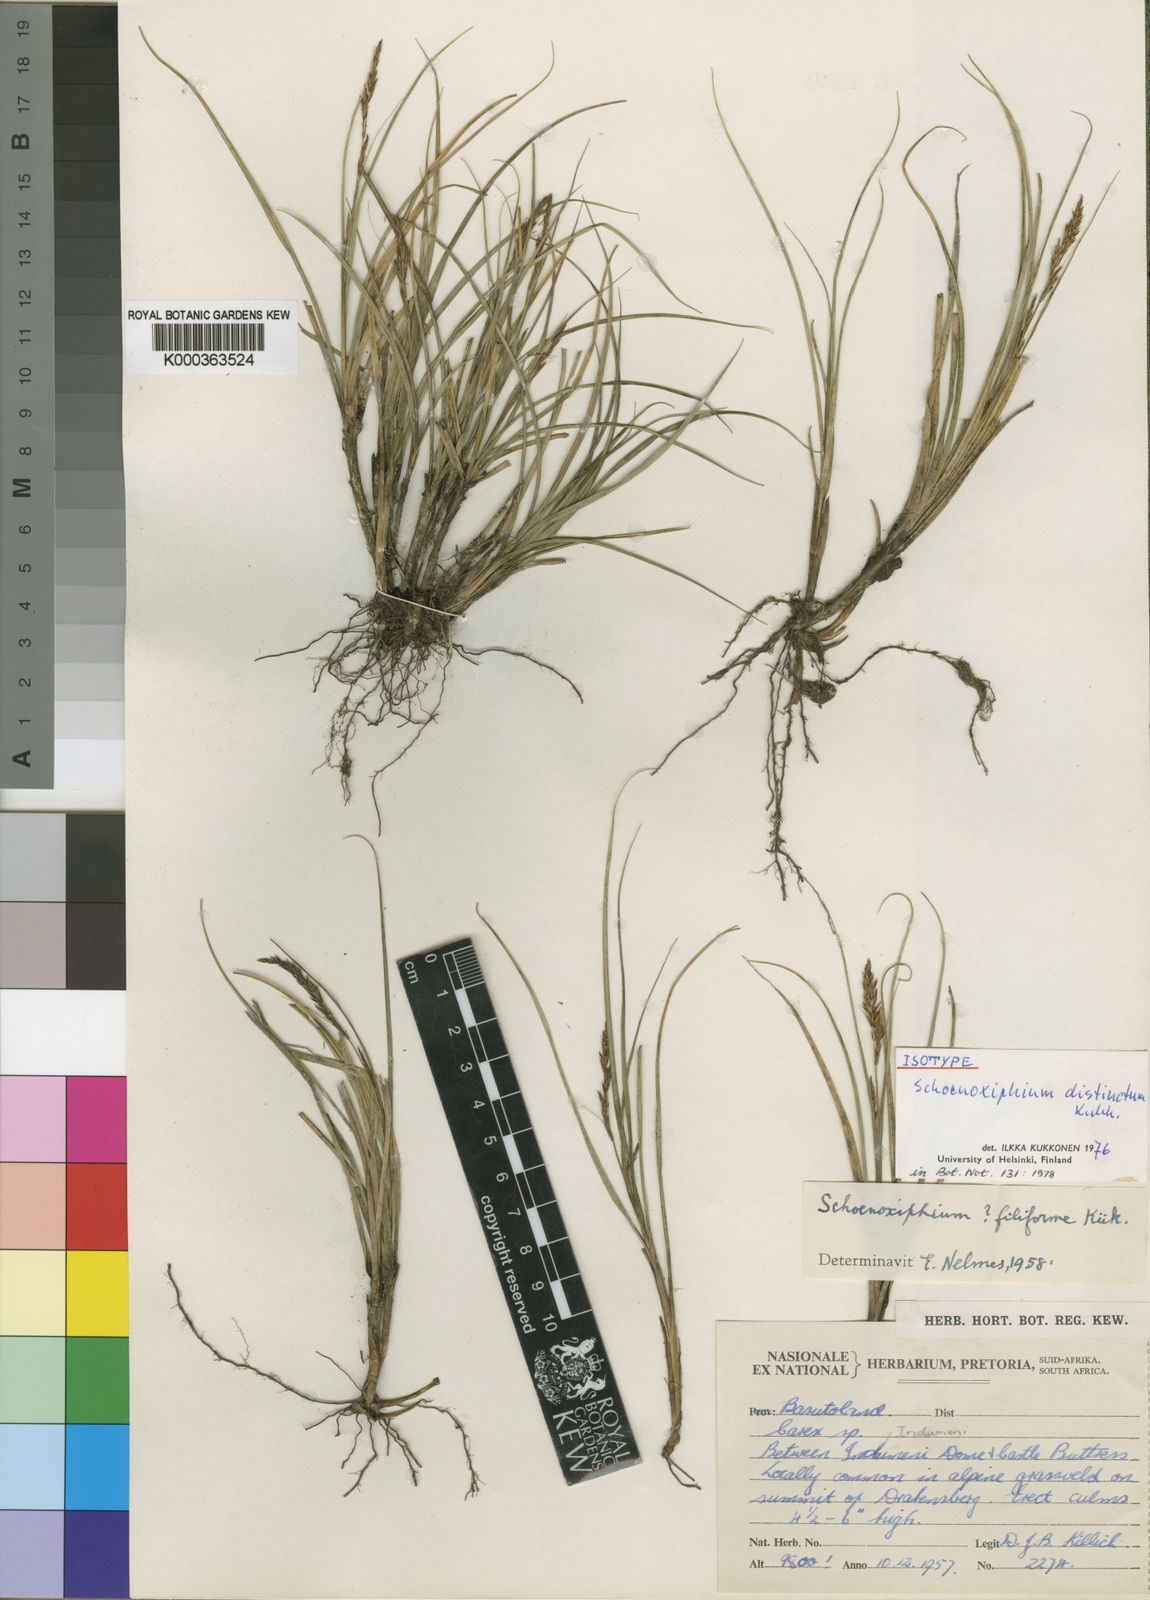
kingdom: Plantae
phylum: Tracheophyta
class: Liliopsida
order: Poales
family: Cyperaceae
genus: Carex
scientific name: Carex distincta
